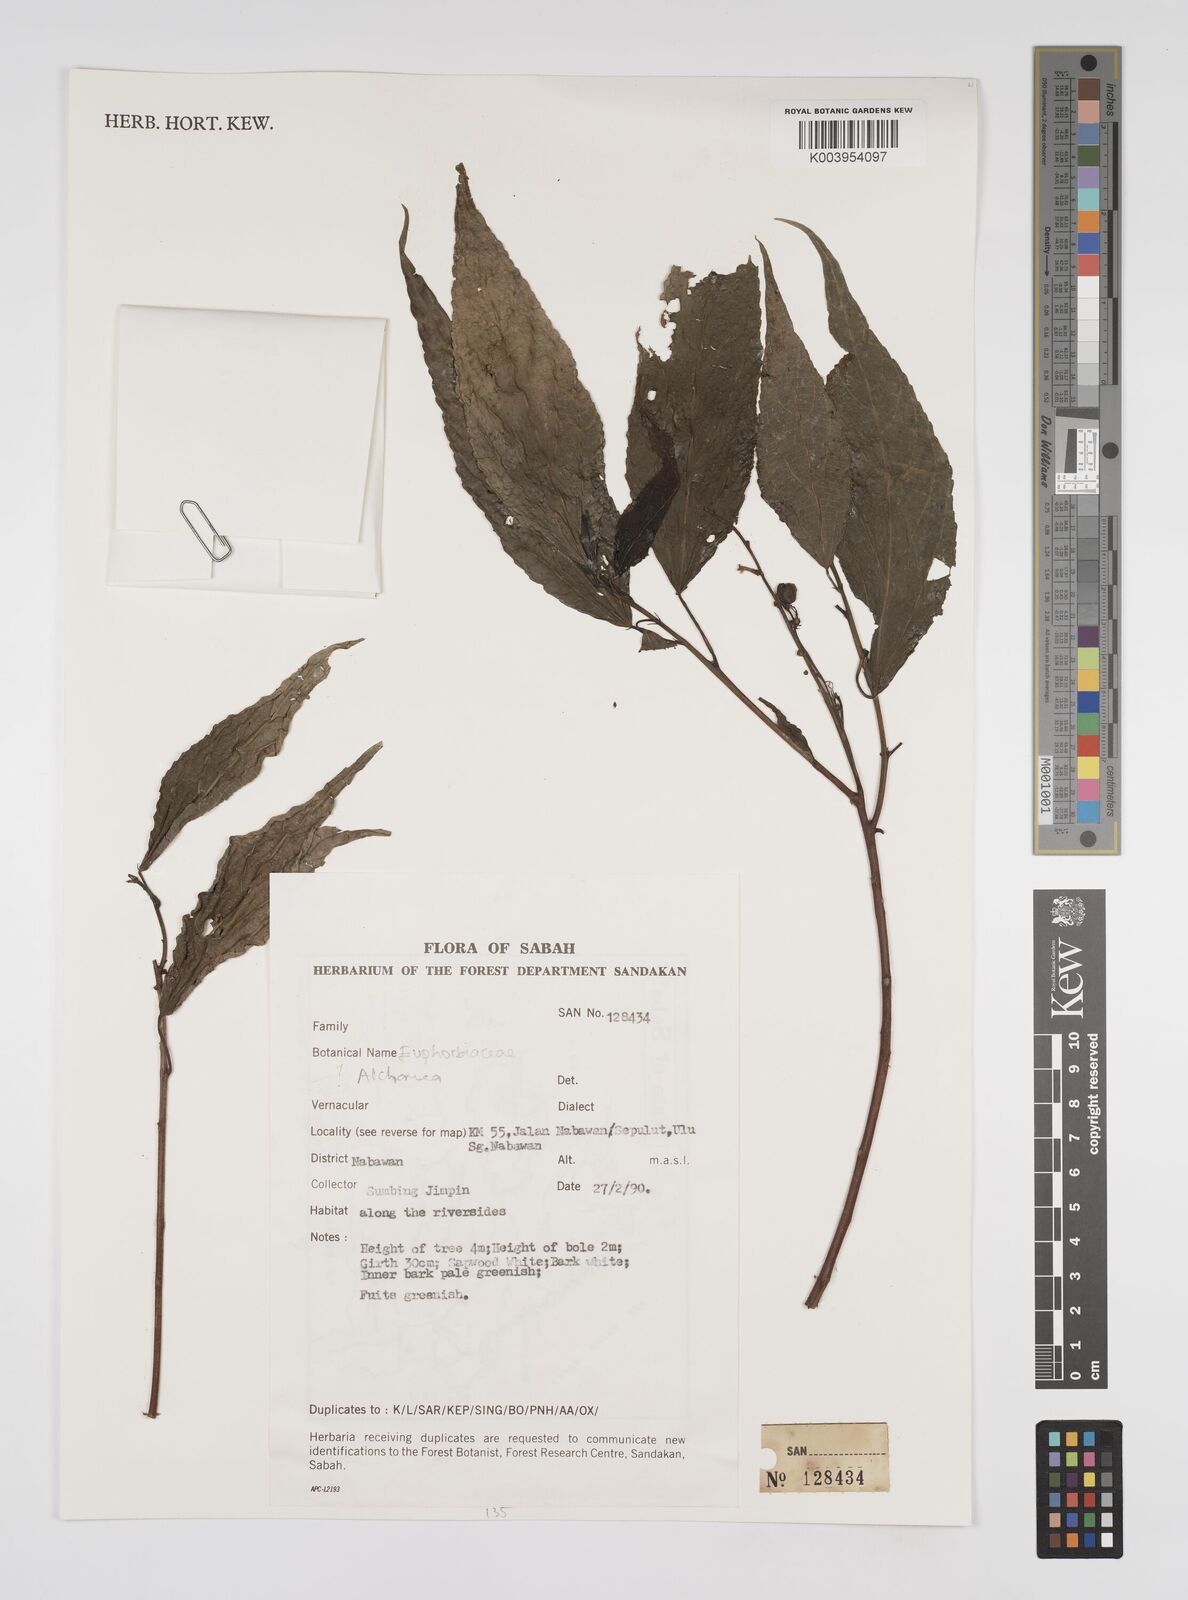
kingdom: Plantae
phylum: Tracheophyta
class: Magnoliopsida
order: Malpighiales
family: Euphorbiaceae
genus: Alchornea
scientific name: Alchornea
